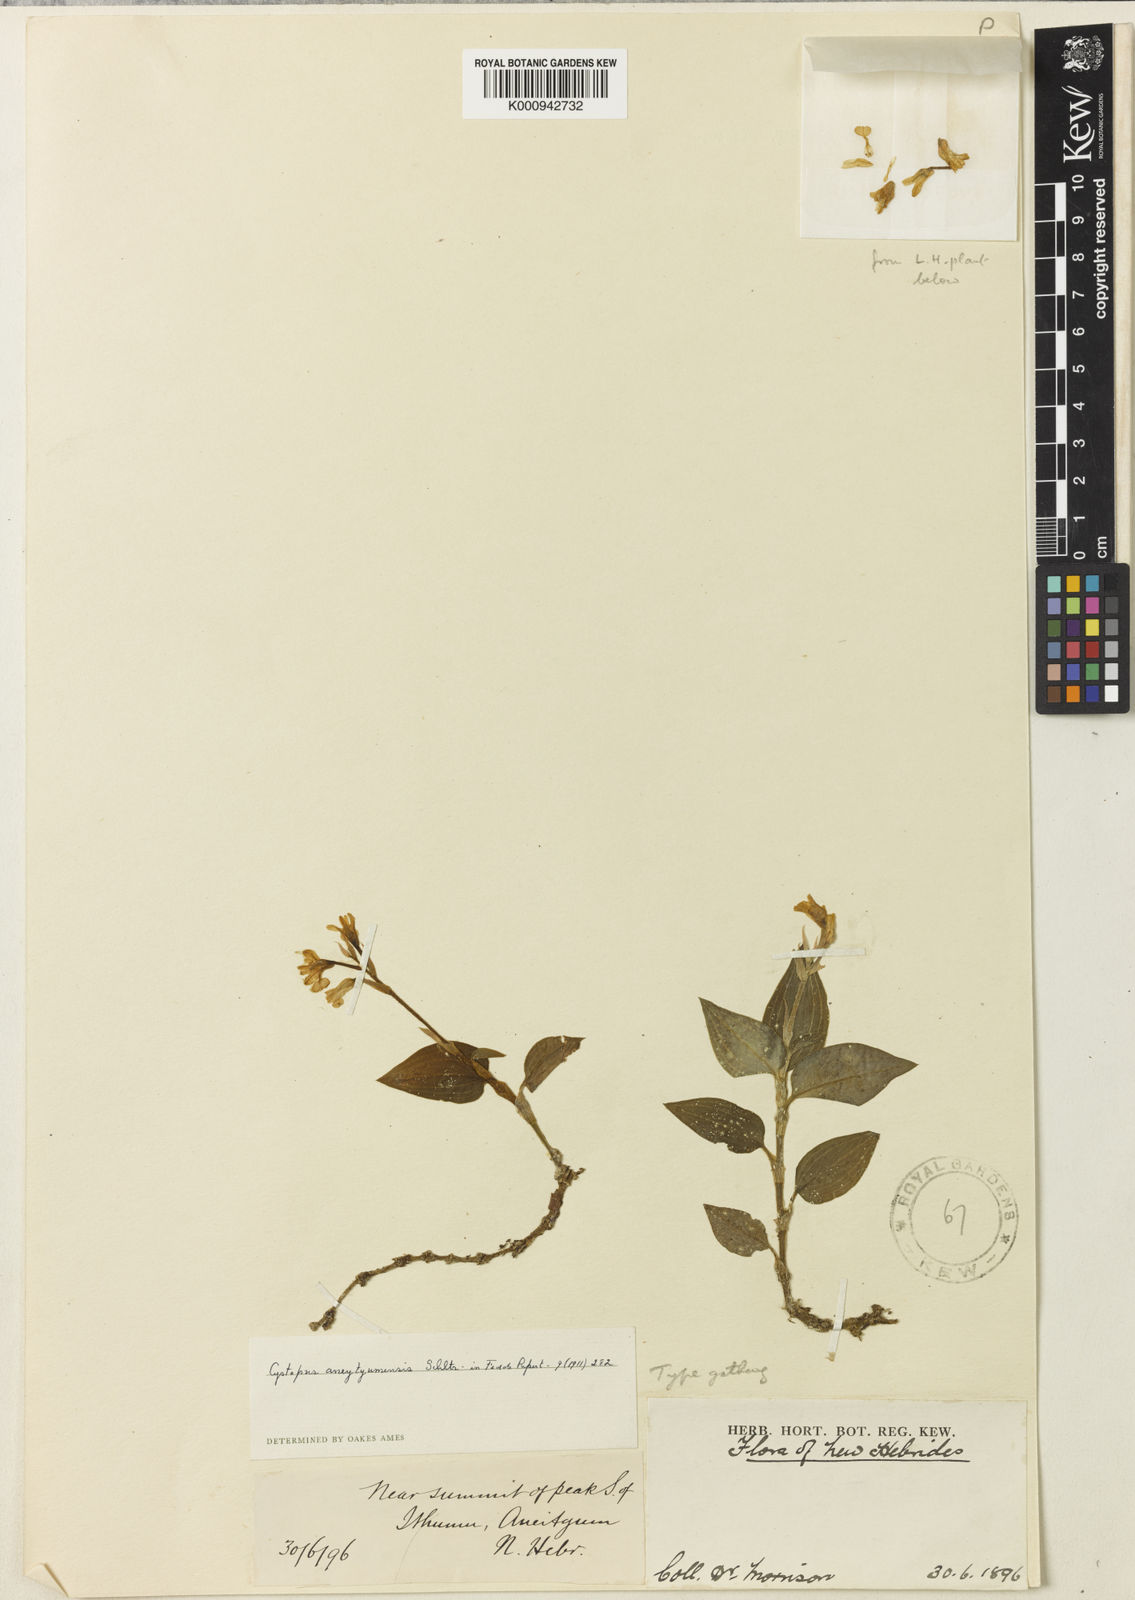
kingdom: Plantae
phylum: Tracheophyta
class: Liliopsida
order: Asparagales
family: Orchidaceae
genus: Odontochilus
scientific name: Odontochilus montanus
